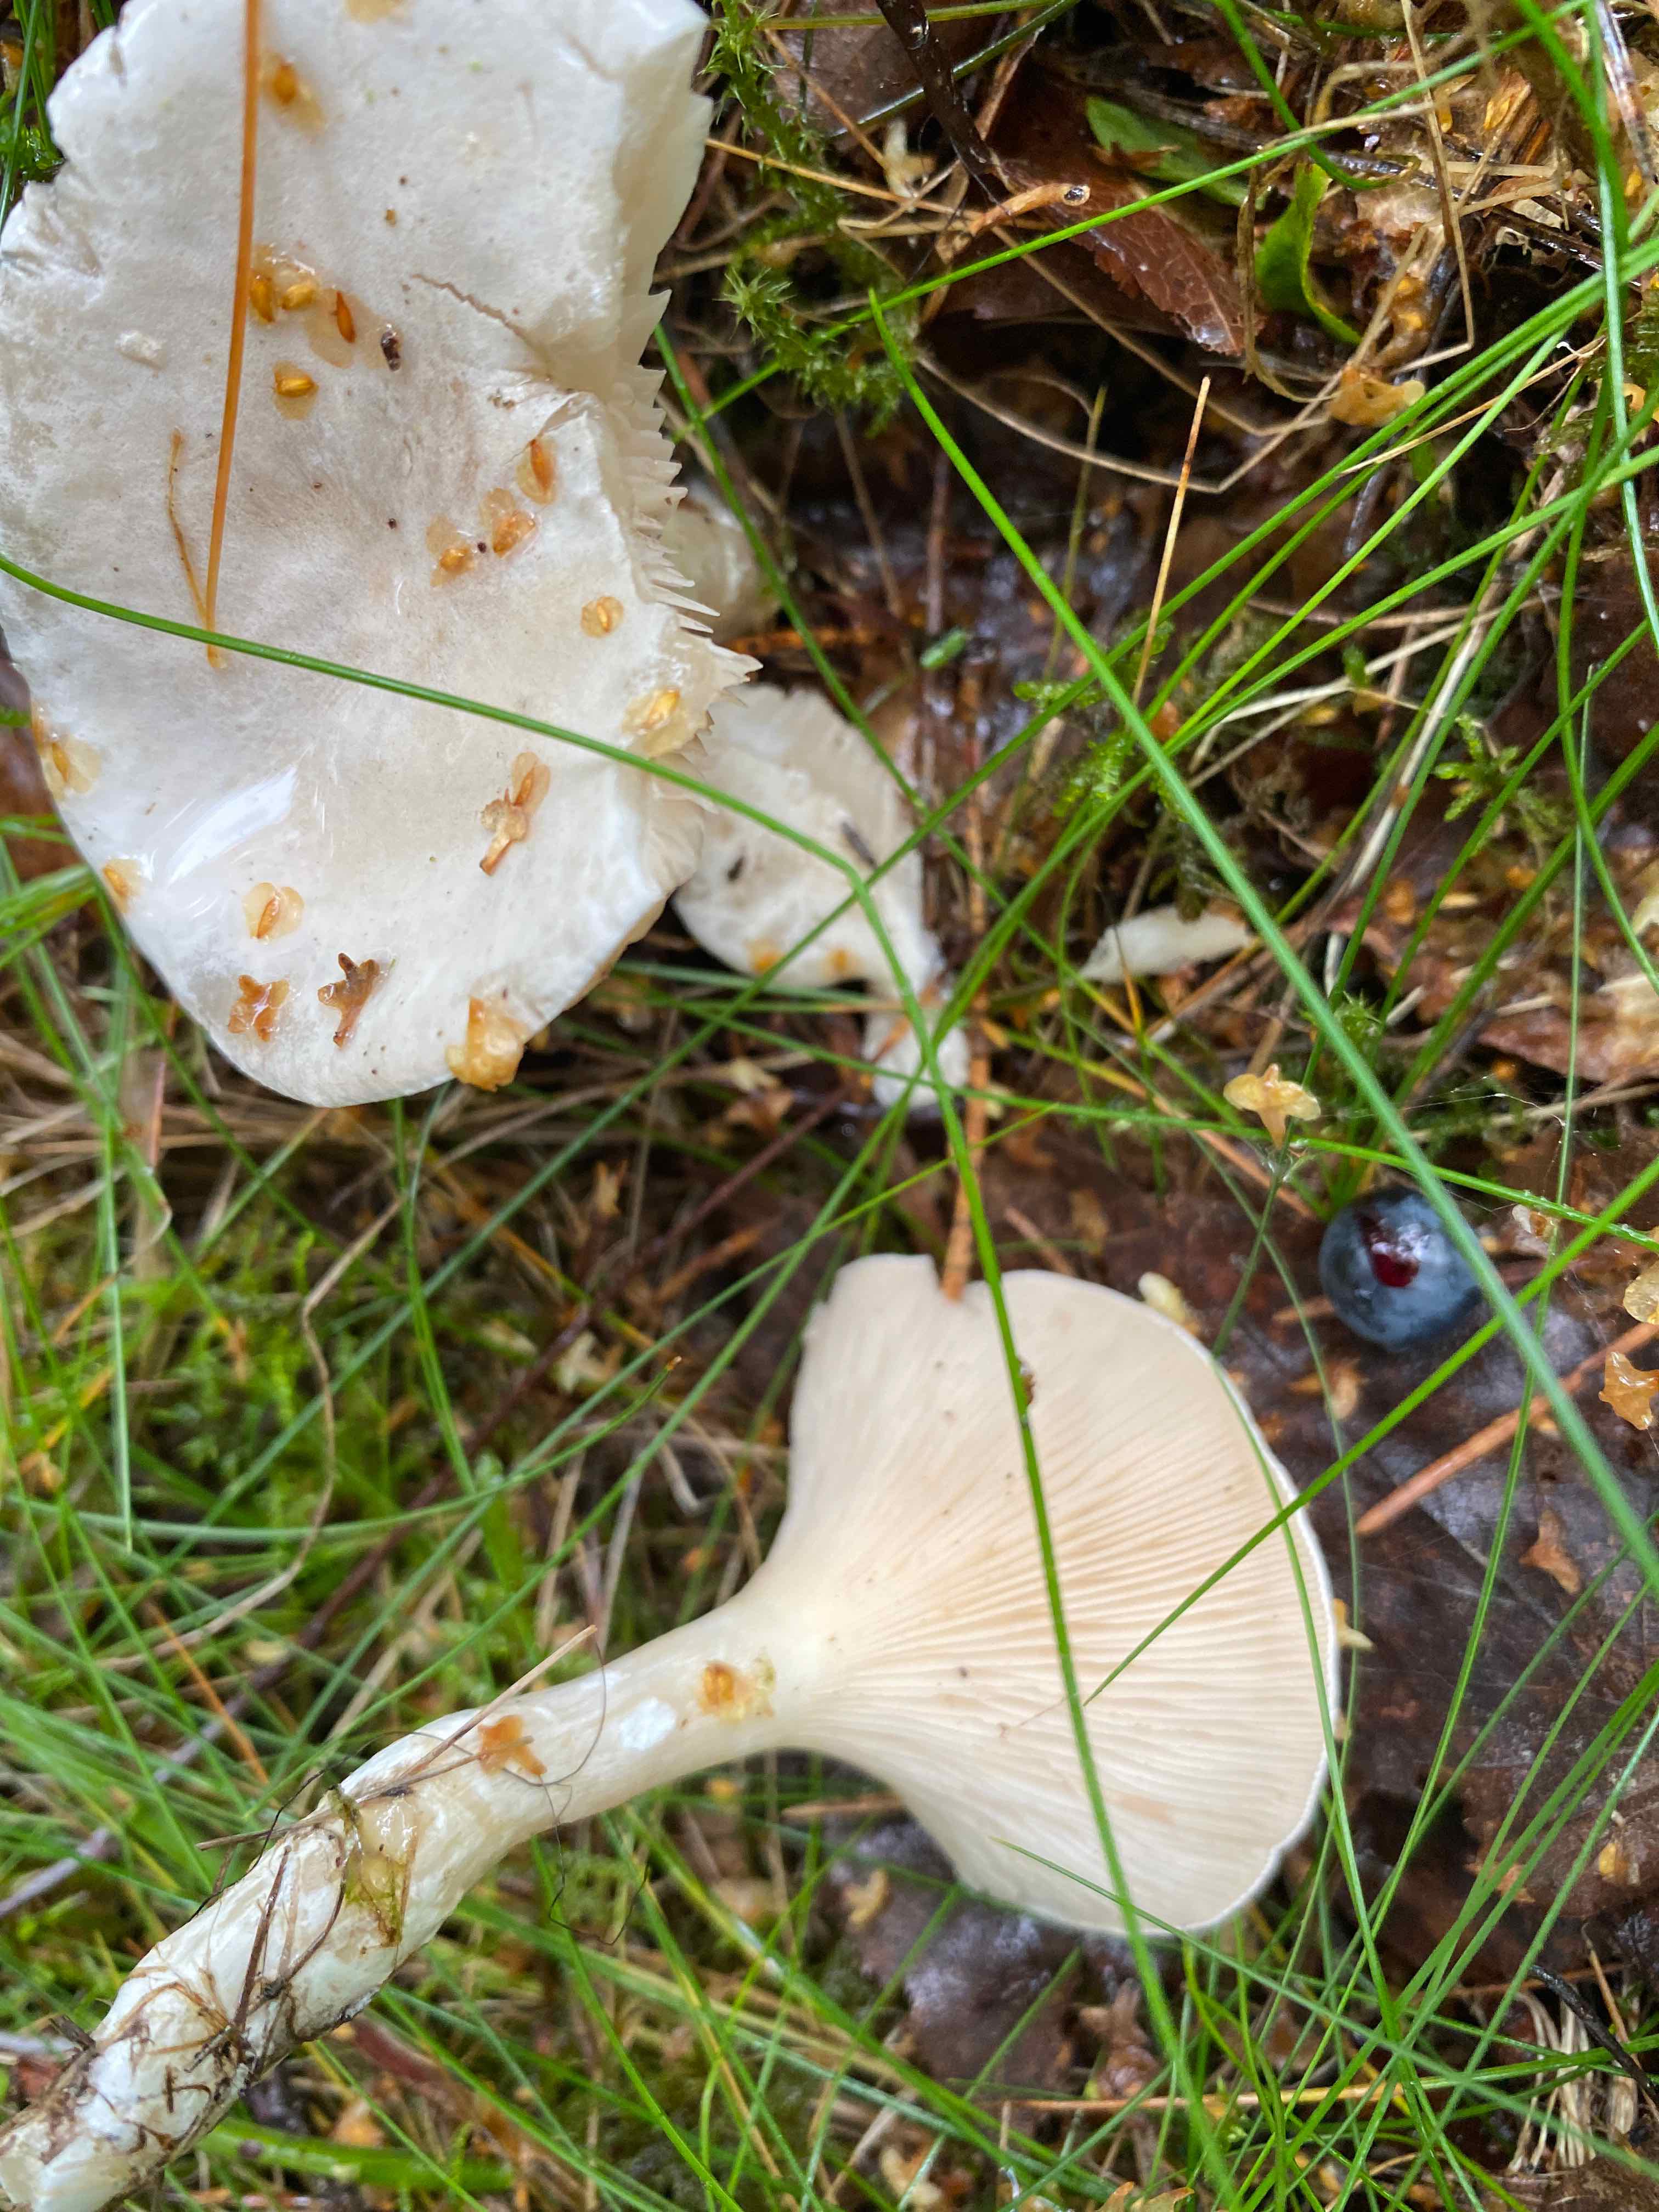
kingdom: Fungi
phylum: Basidiomycota
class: Agaricomycetes
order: Agaricales
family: Entolomataceae
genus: Clitopilus
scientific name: Clitopilus prunulus
